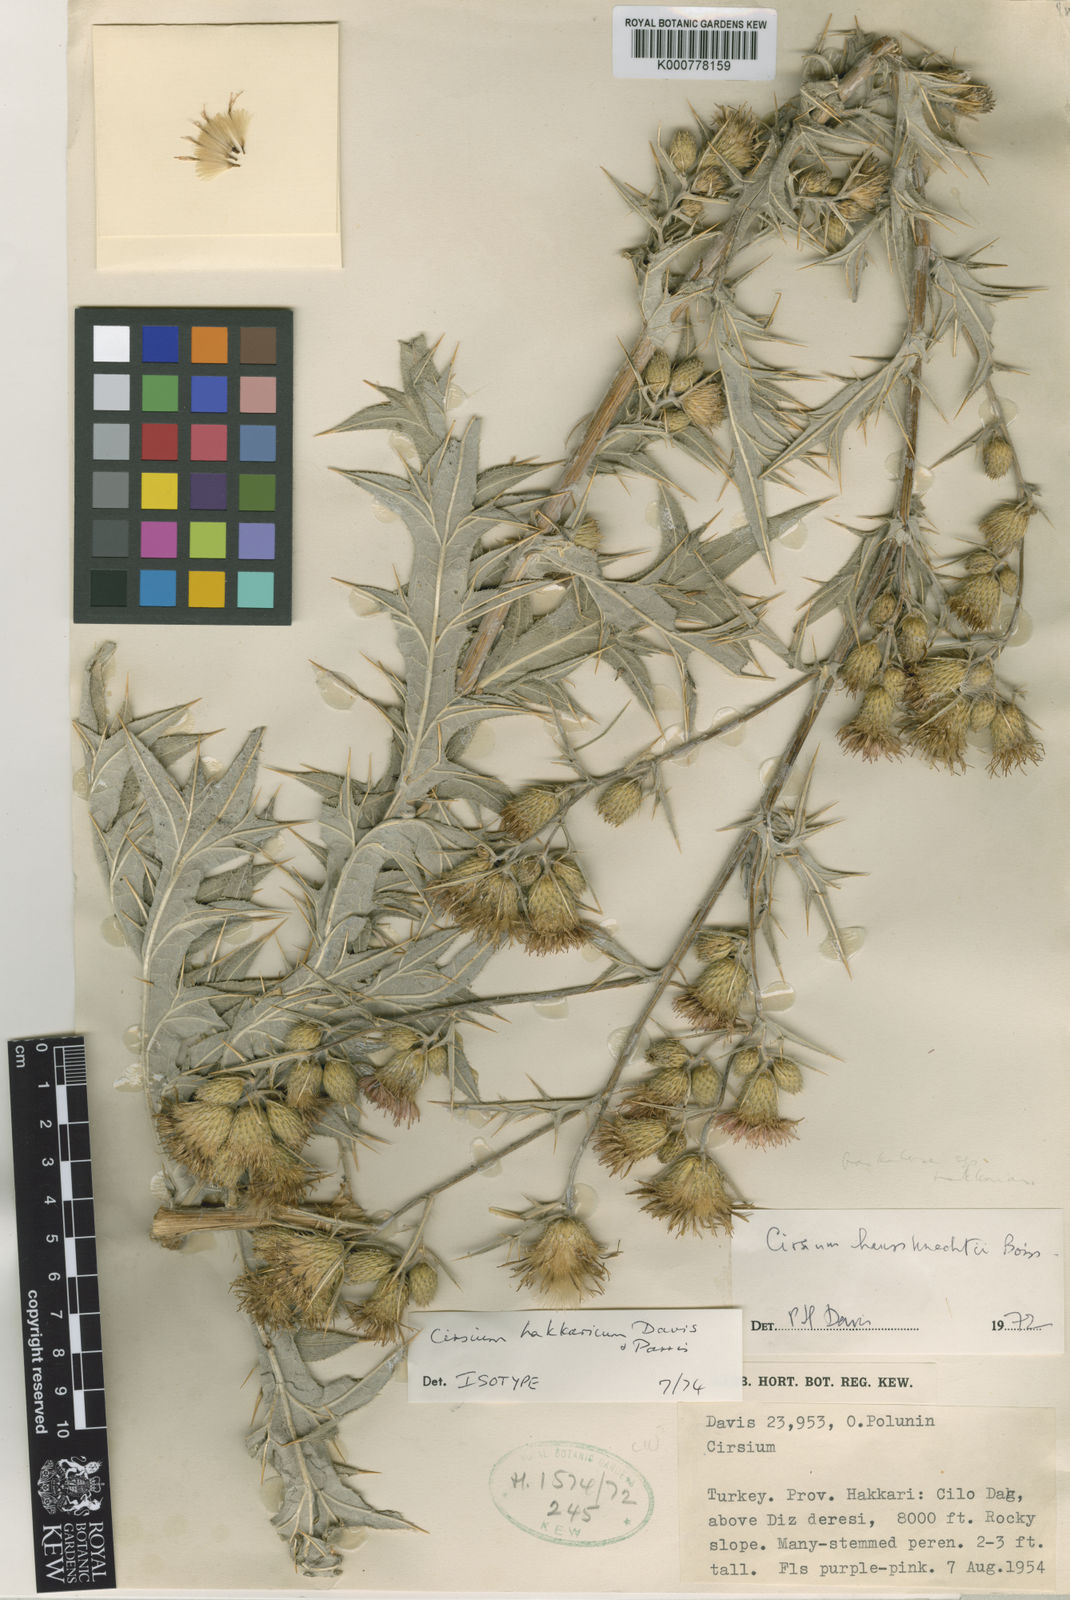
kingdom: Plantae
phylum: Tracheophyta
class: Magnoliopsida
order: Asterales
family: Asteraceae
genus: Lophiolepis
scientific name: Lophiolepis hakkarica
